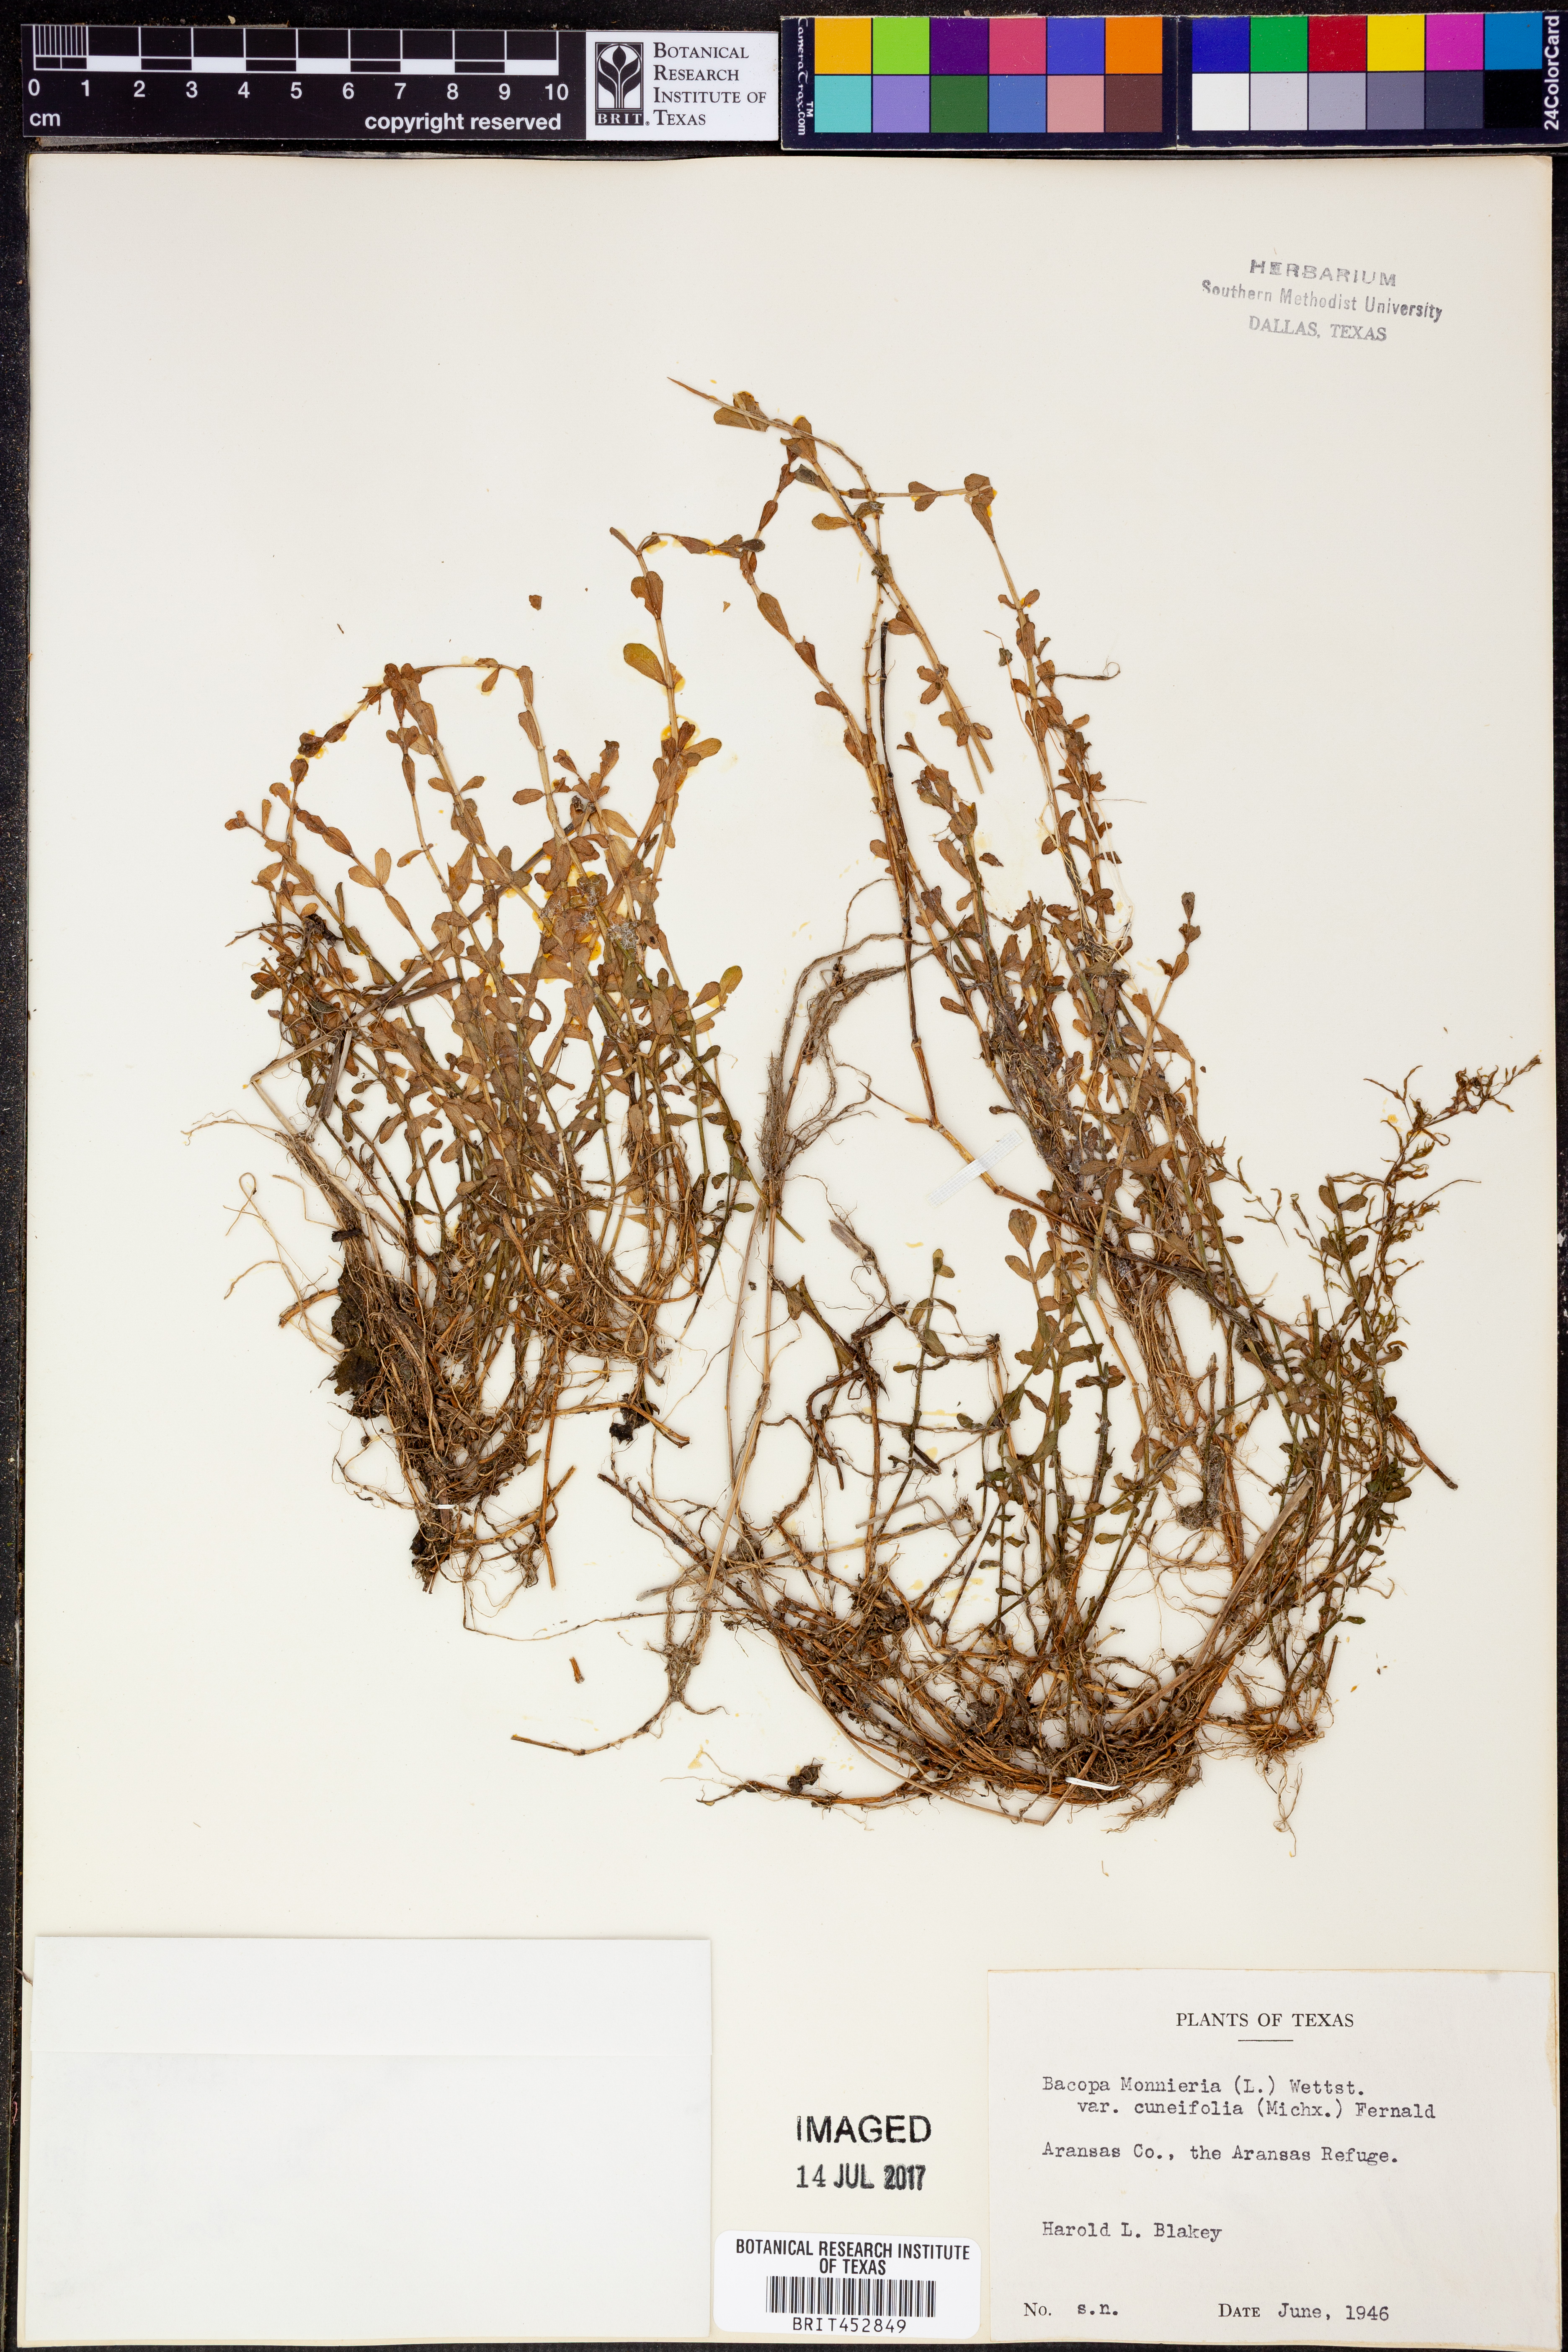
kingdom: Plantae
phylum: Tracheophyta
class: Magnoliopsida
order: Lamiales
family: Plantaginaceae
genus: Bacopa
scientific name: Bacopa monnieri
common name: Indian-pennywort
